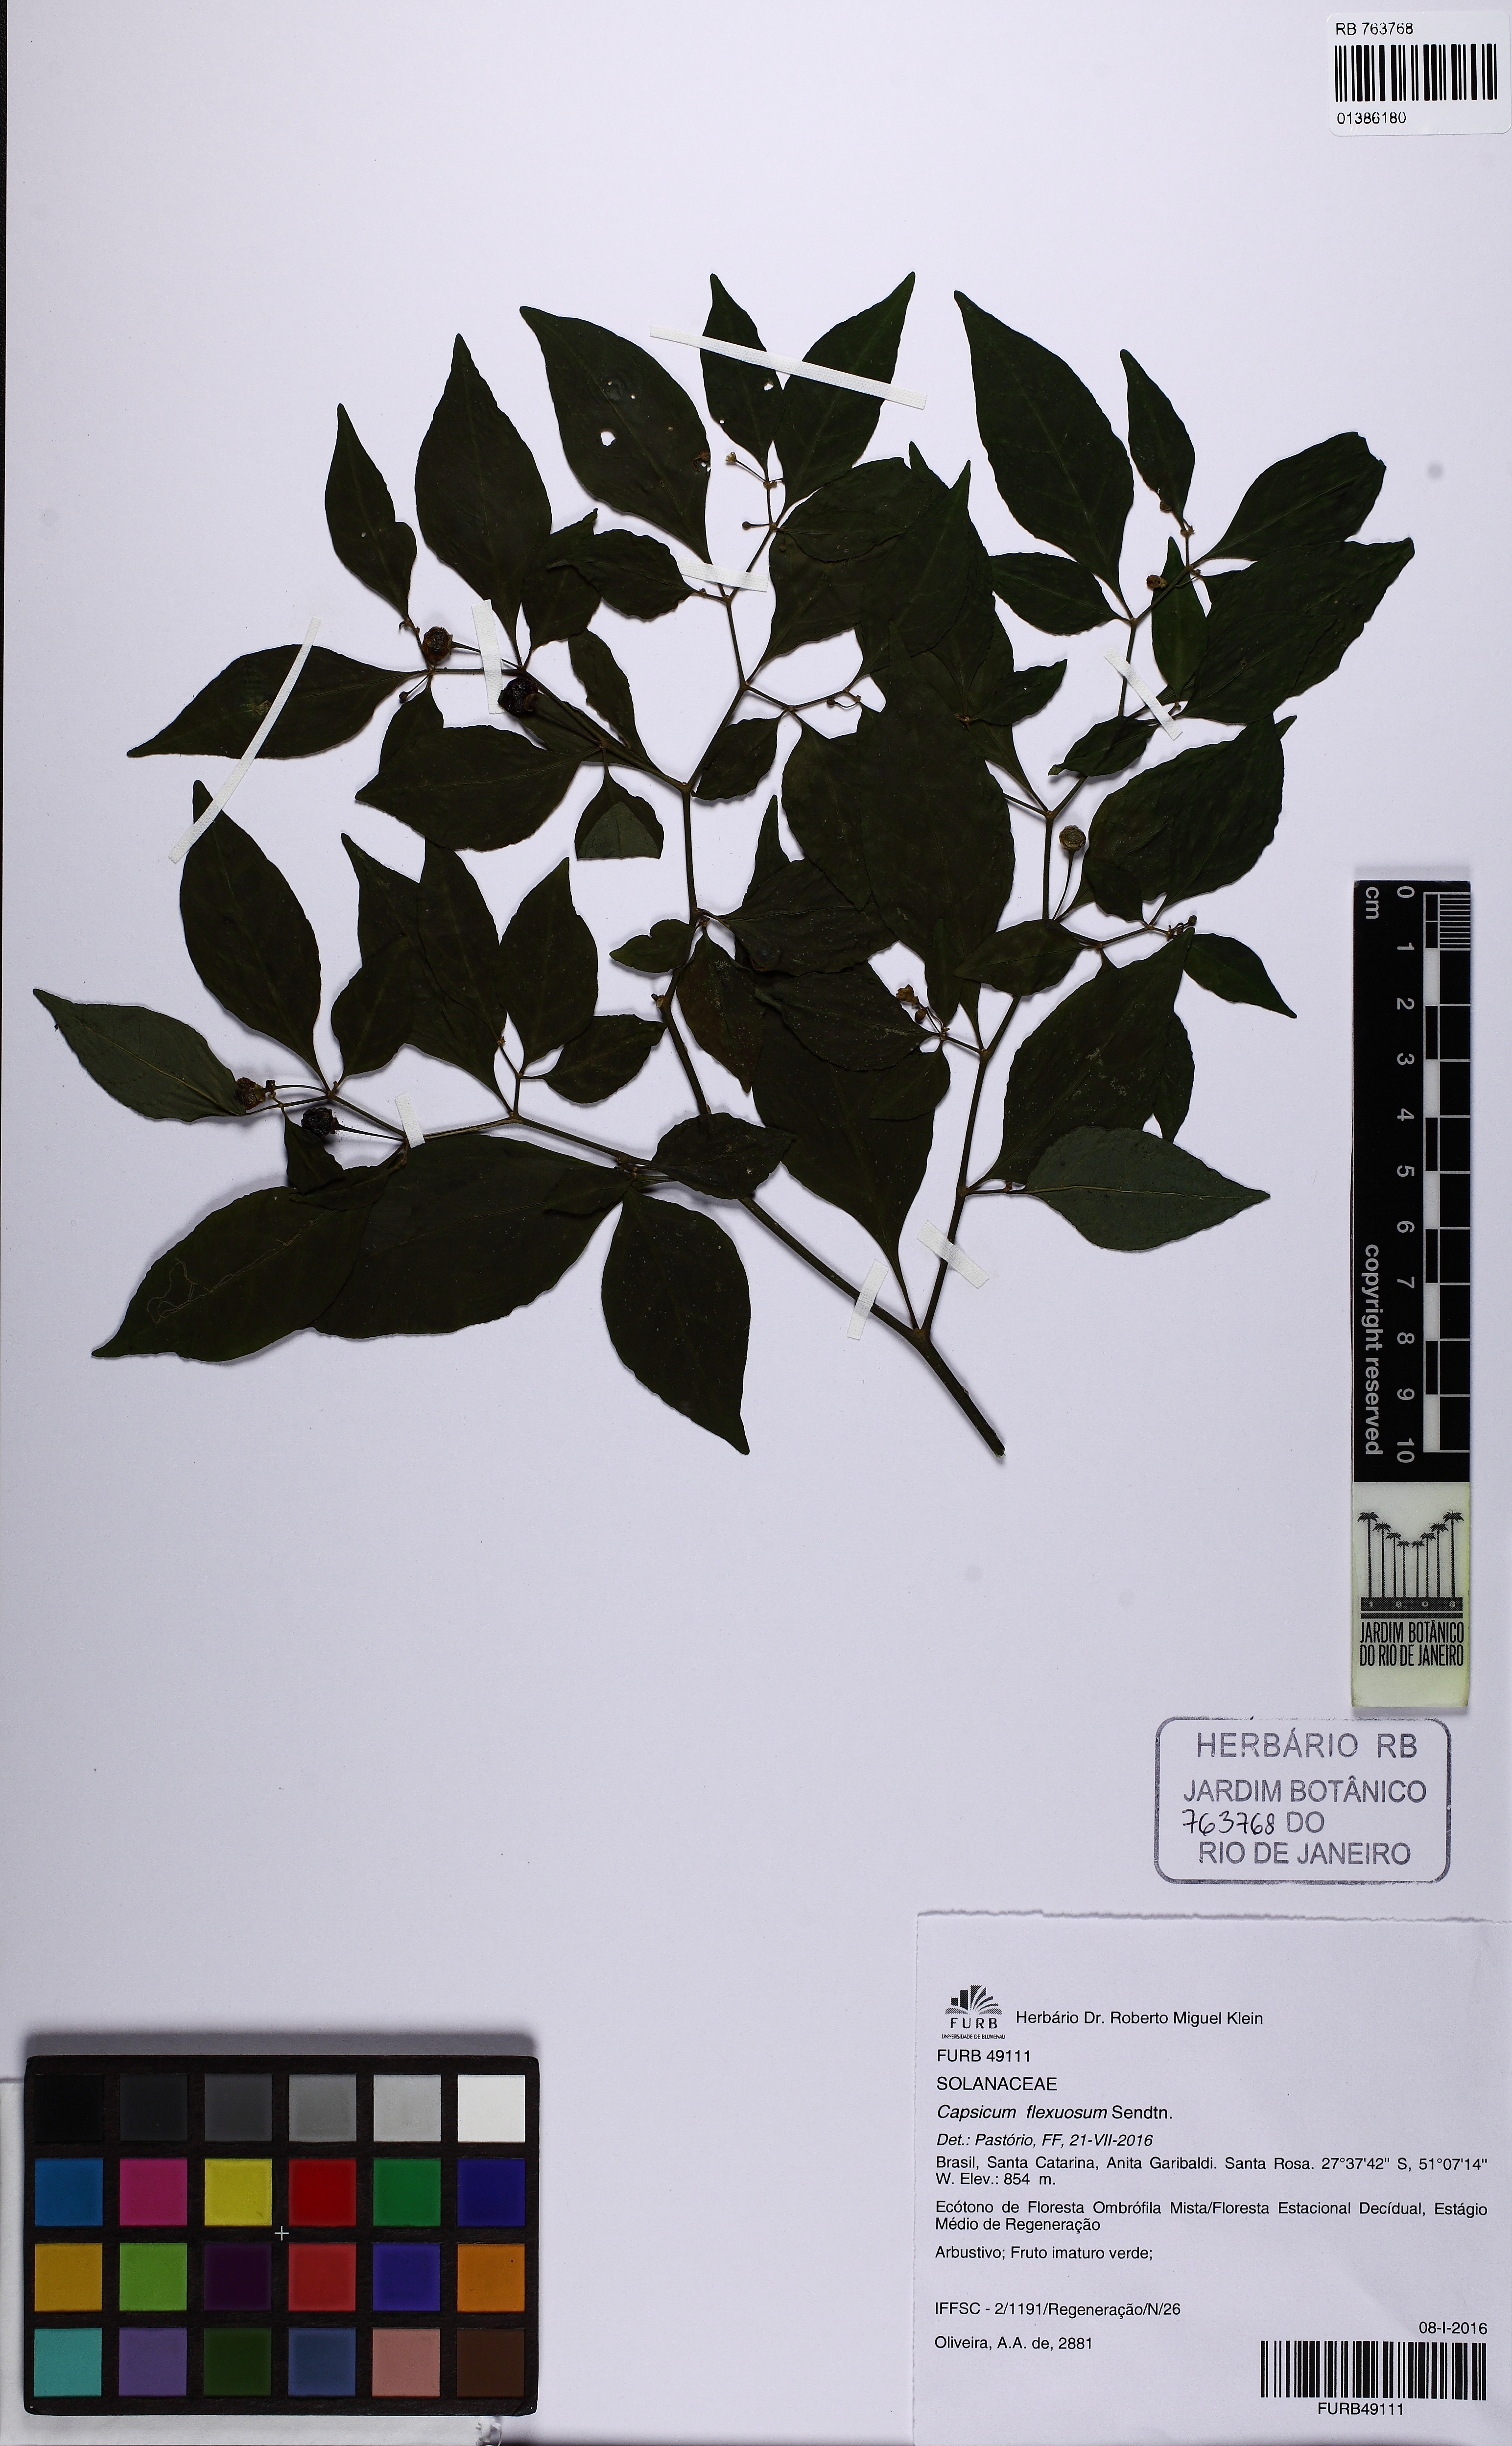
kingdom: Plantae
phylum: Tracheophyta
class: Magnoliopsida
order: Solanales
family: Solanaceae
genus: Capsicum
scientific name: Capsicum flexuosum
